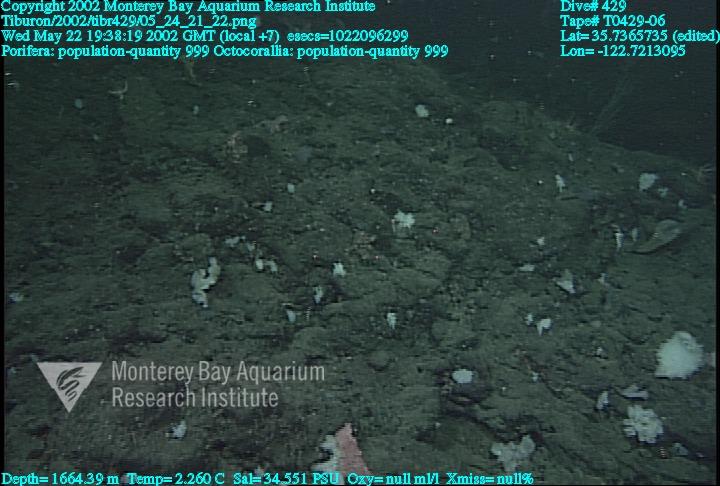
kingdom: Animalia
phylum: Porifera
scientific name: Porifera
